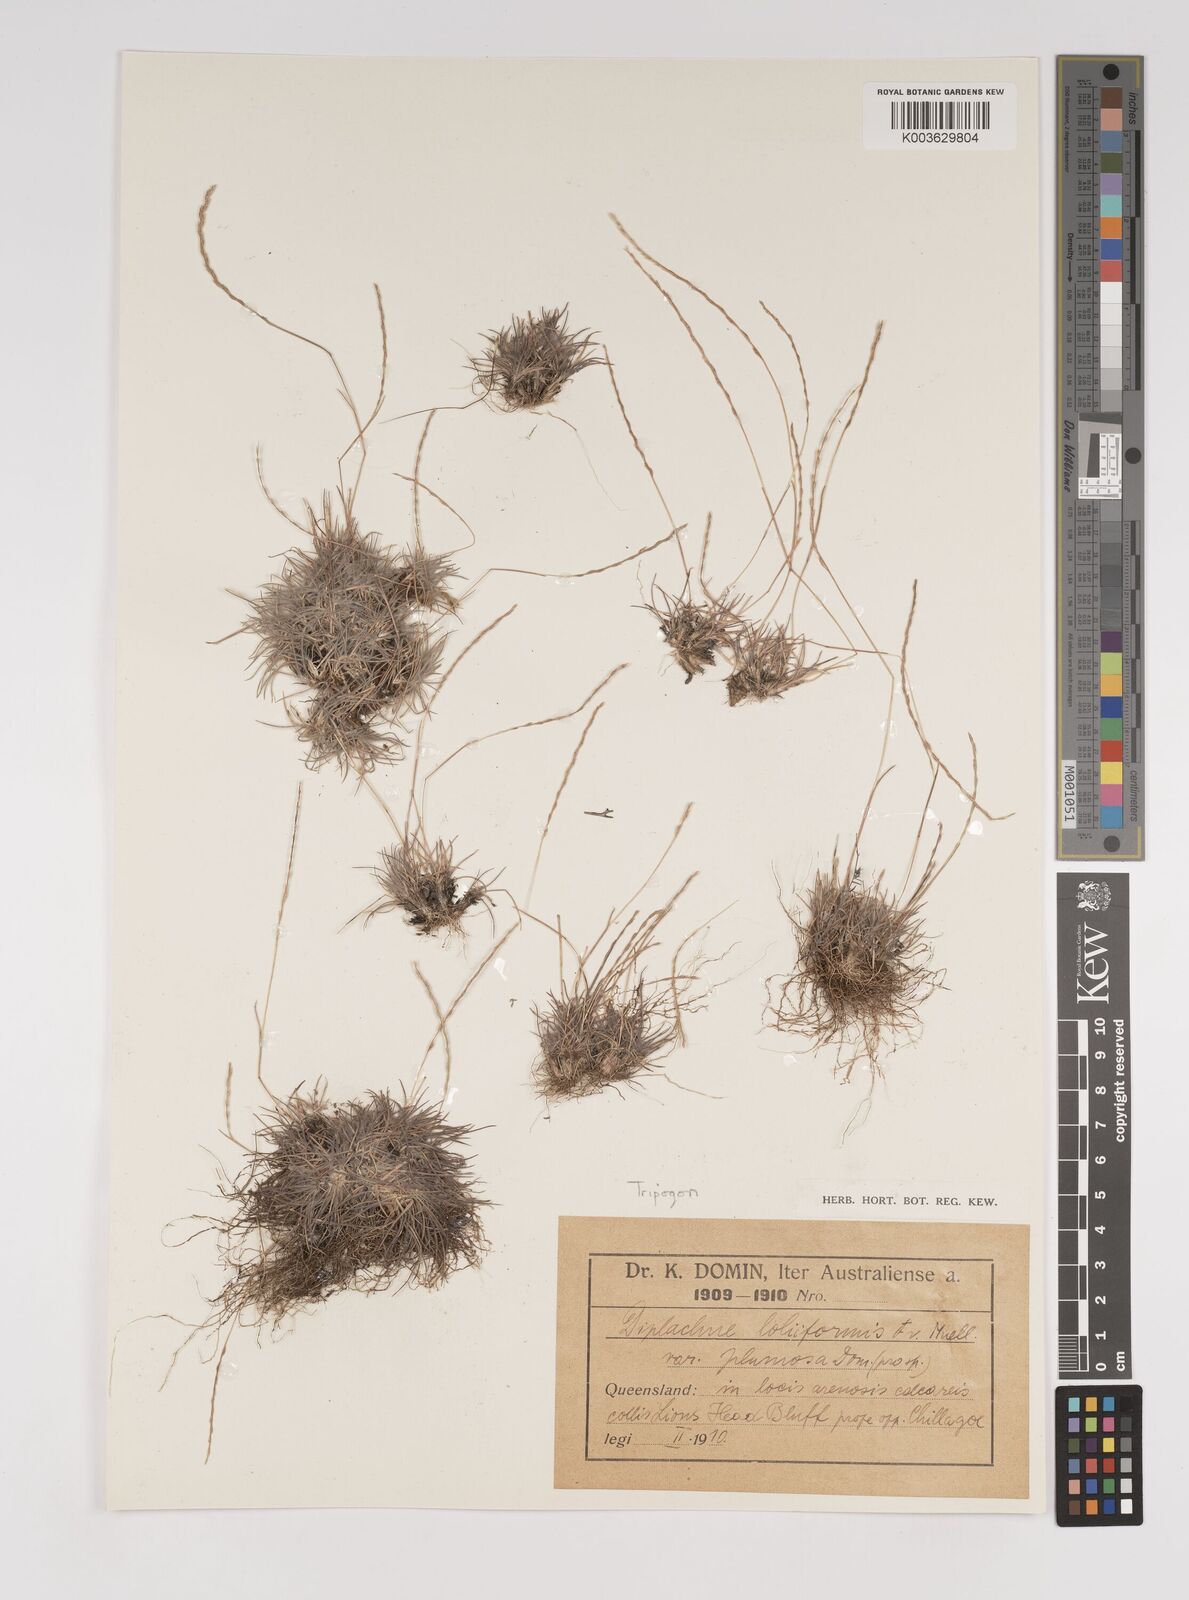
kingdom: Plantae
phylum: Tracheophyta
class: Liliopsida
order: Poales
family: Poaceae
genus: Tripogonella
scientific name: Tripogonella loliiformis
